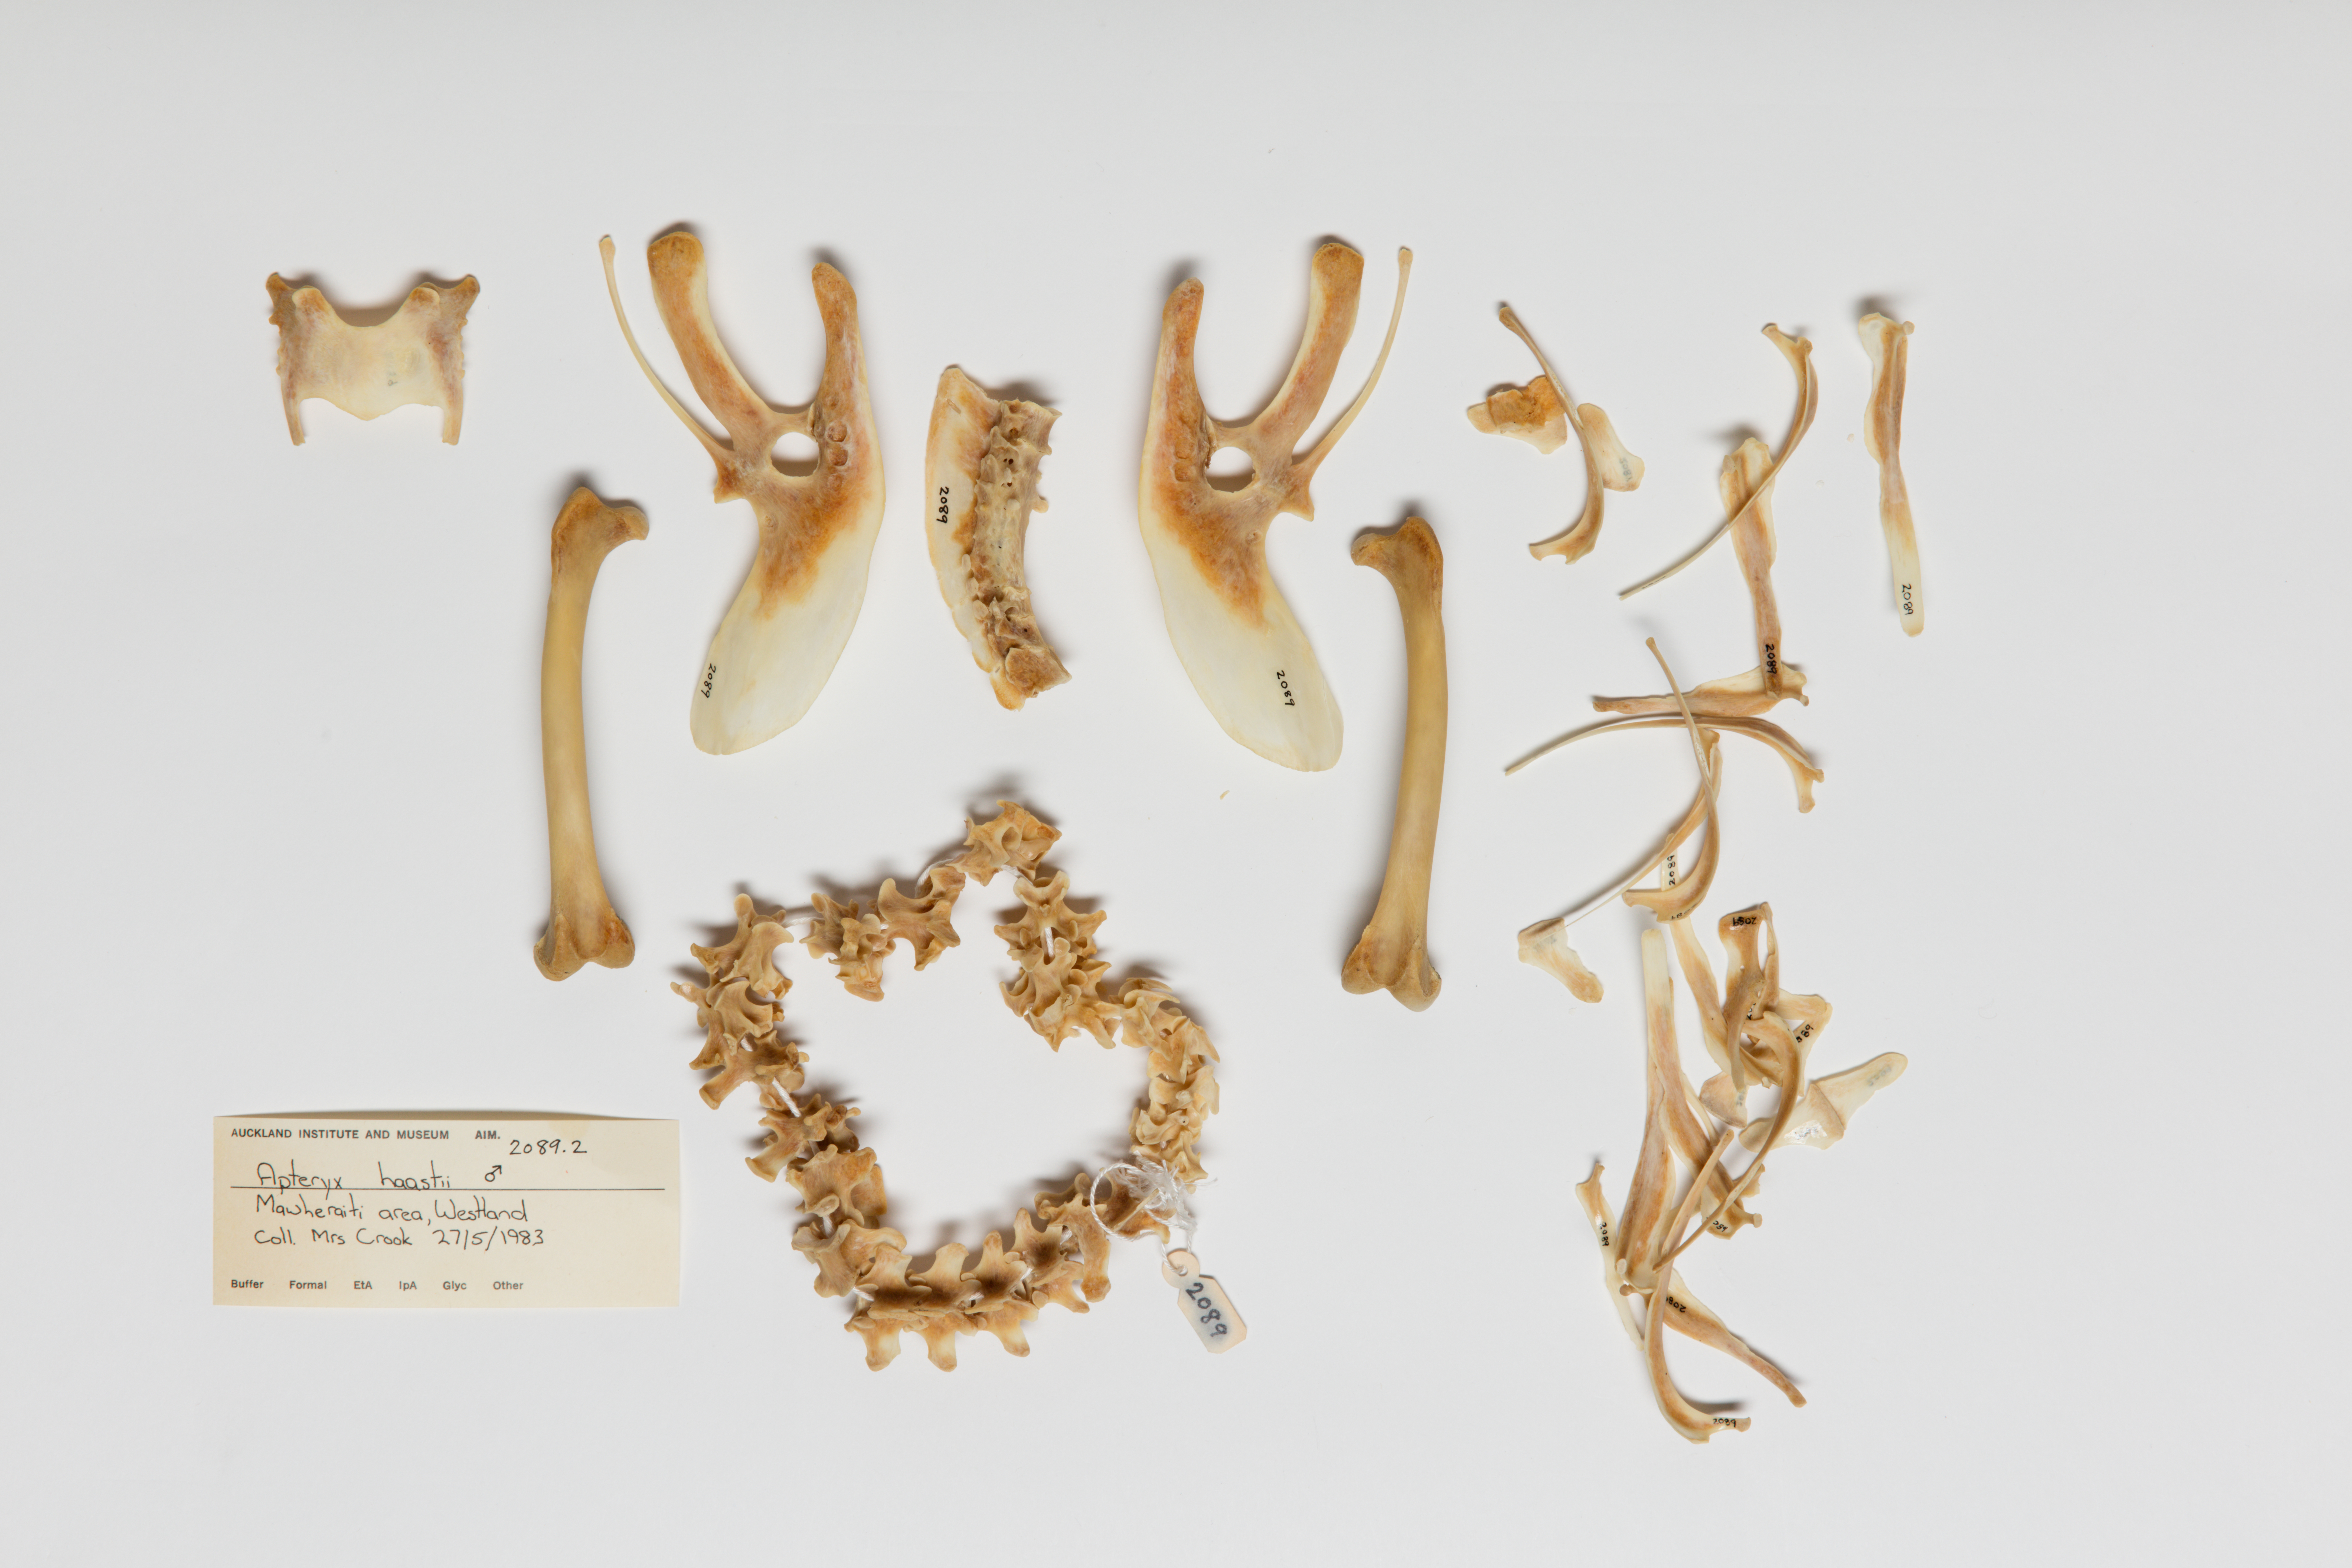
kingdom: Animalia
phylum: Chordata
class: Aves
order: Apterygiformes
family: Apterygidae
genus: Apteryx
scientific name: Apteryx
